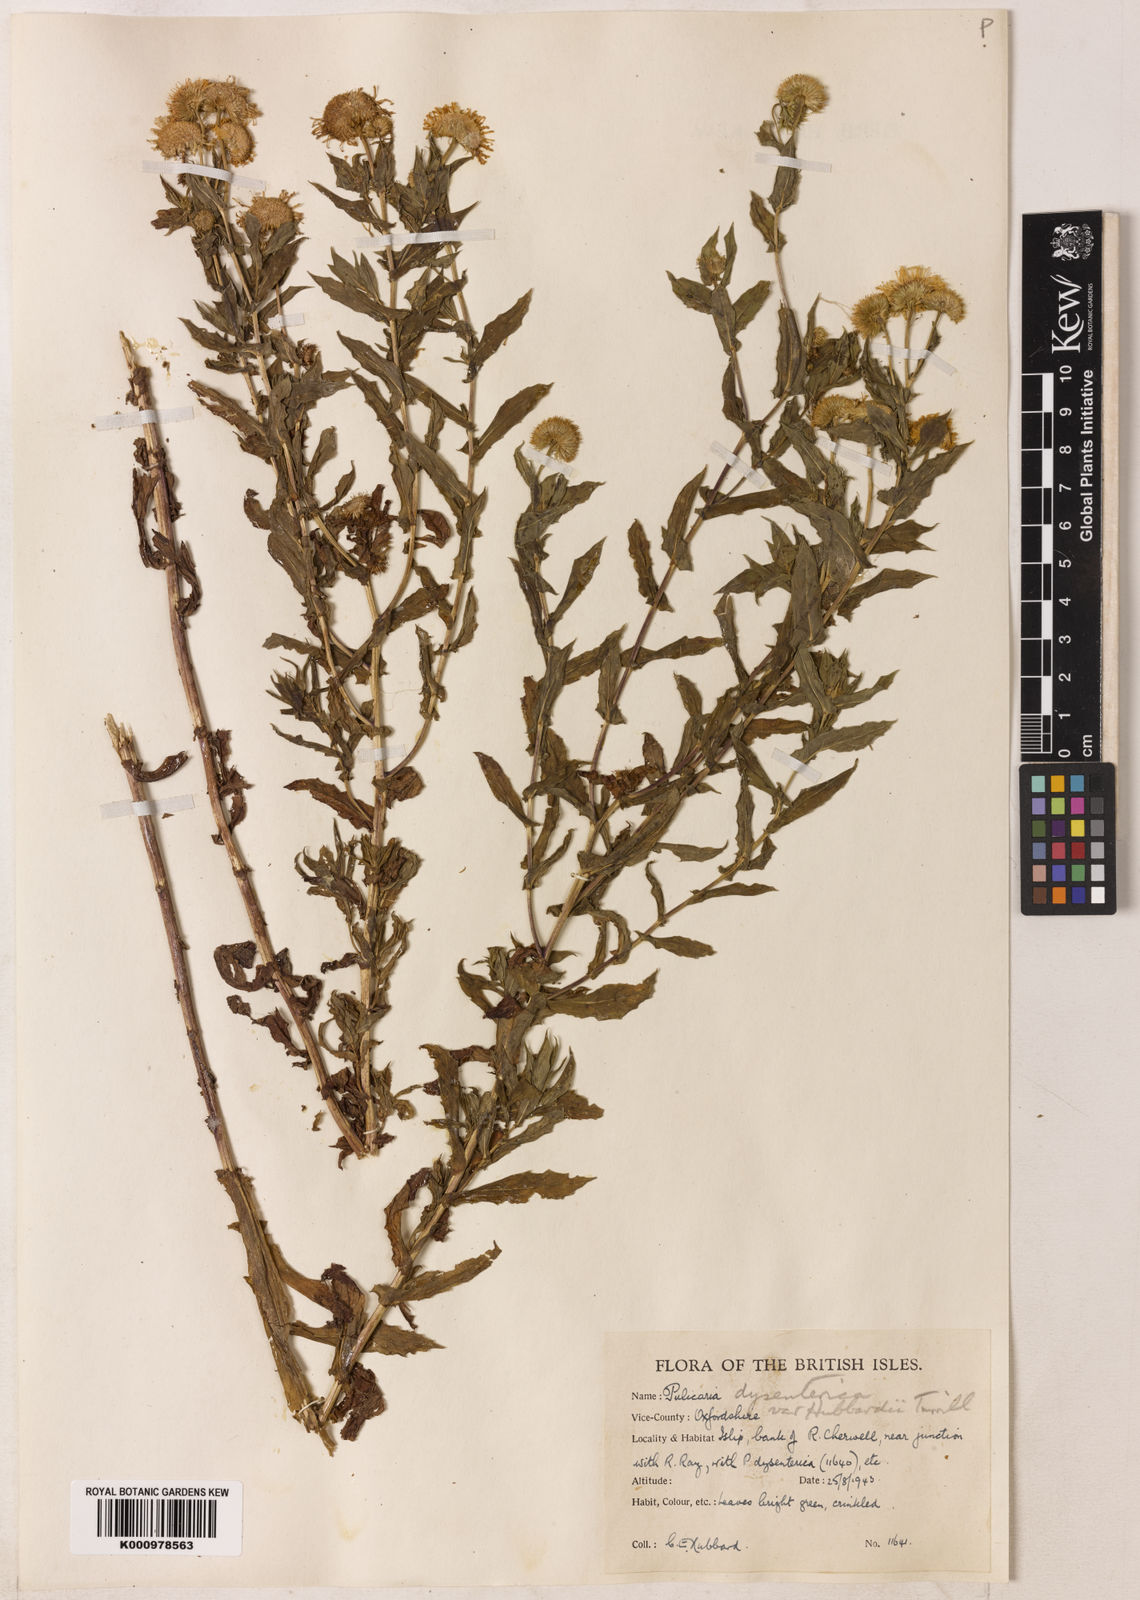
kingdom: Plantae
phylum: Tracheophyta
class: Magnoliopsida
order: Asterales
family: Asteraceae
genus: Pulicaria
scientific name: Pulicaria
